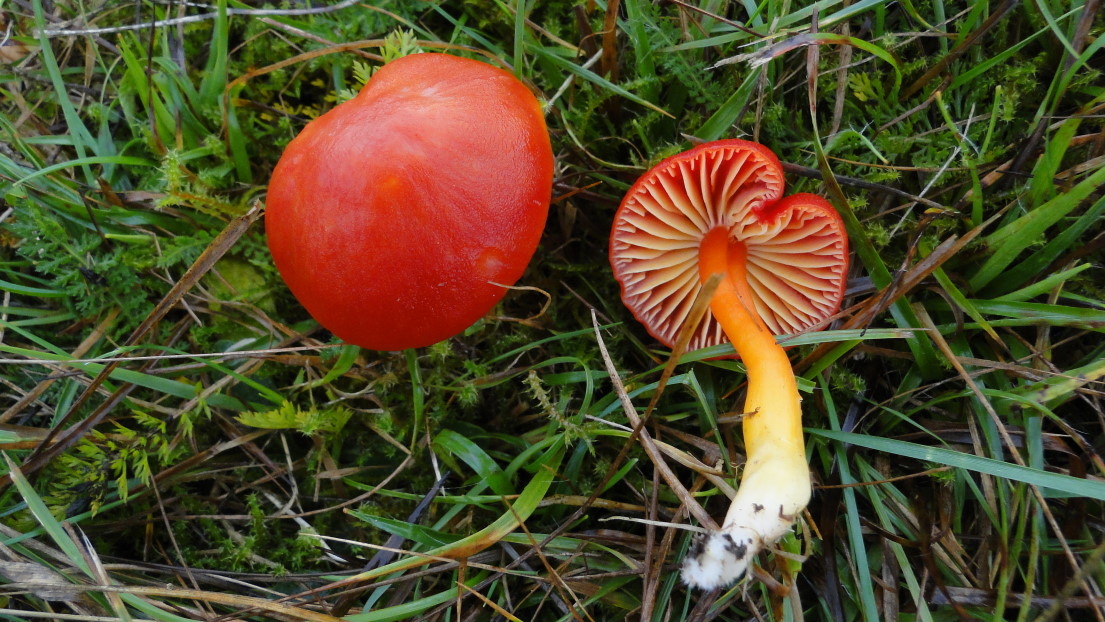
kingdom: Fungi
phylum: Basidiomycota
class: Agaricomycetes
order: Agaricales
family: Hygrophoraceae
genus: Hygrocybe
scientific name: Hygrocybe coccinea
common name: cinnober-vokshat
